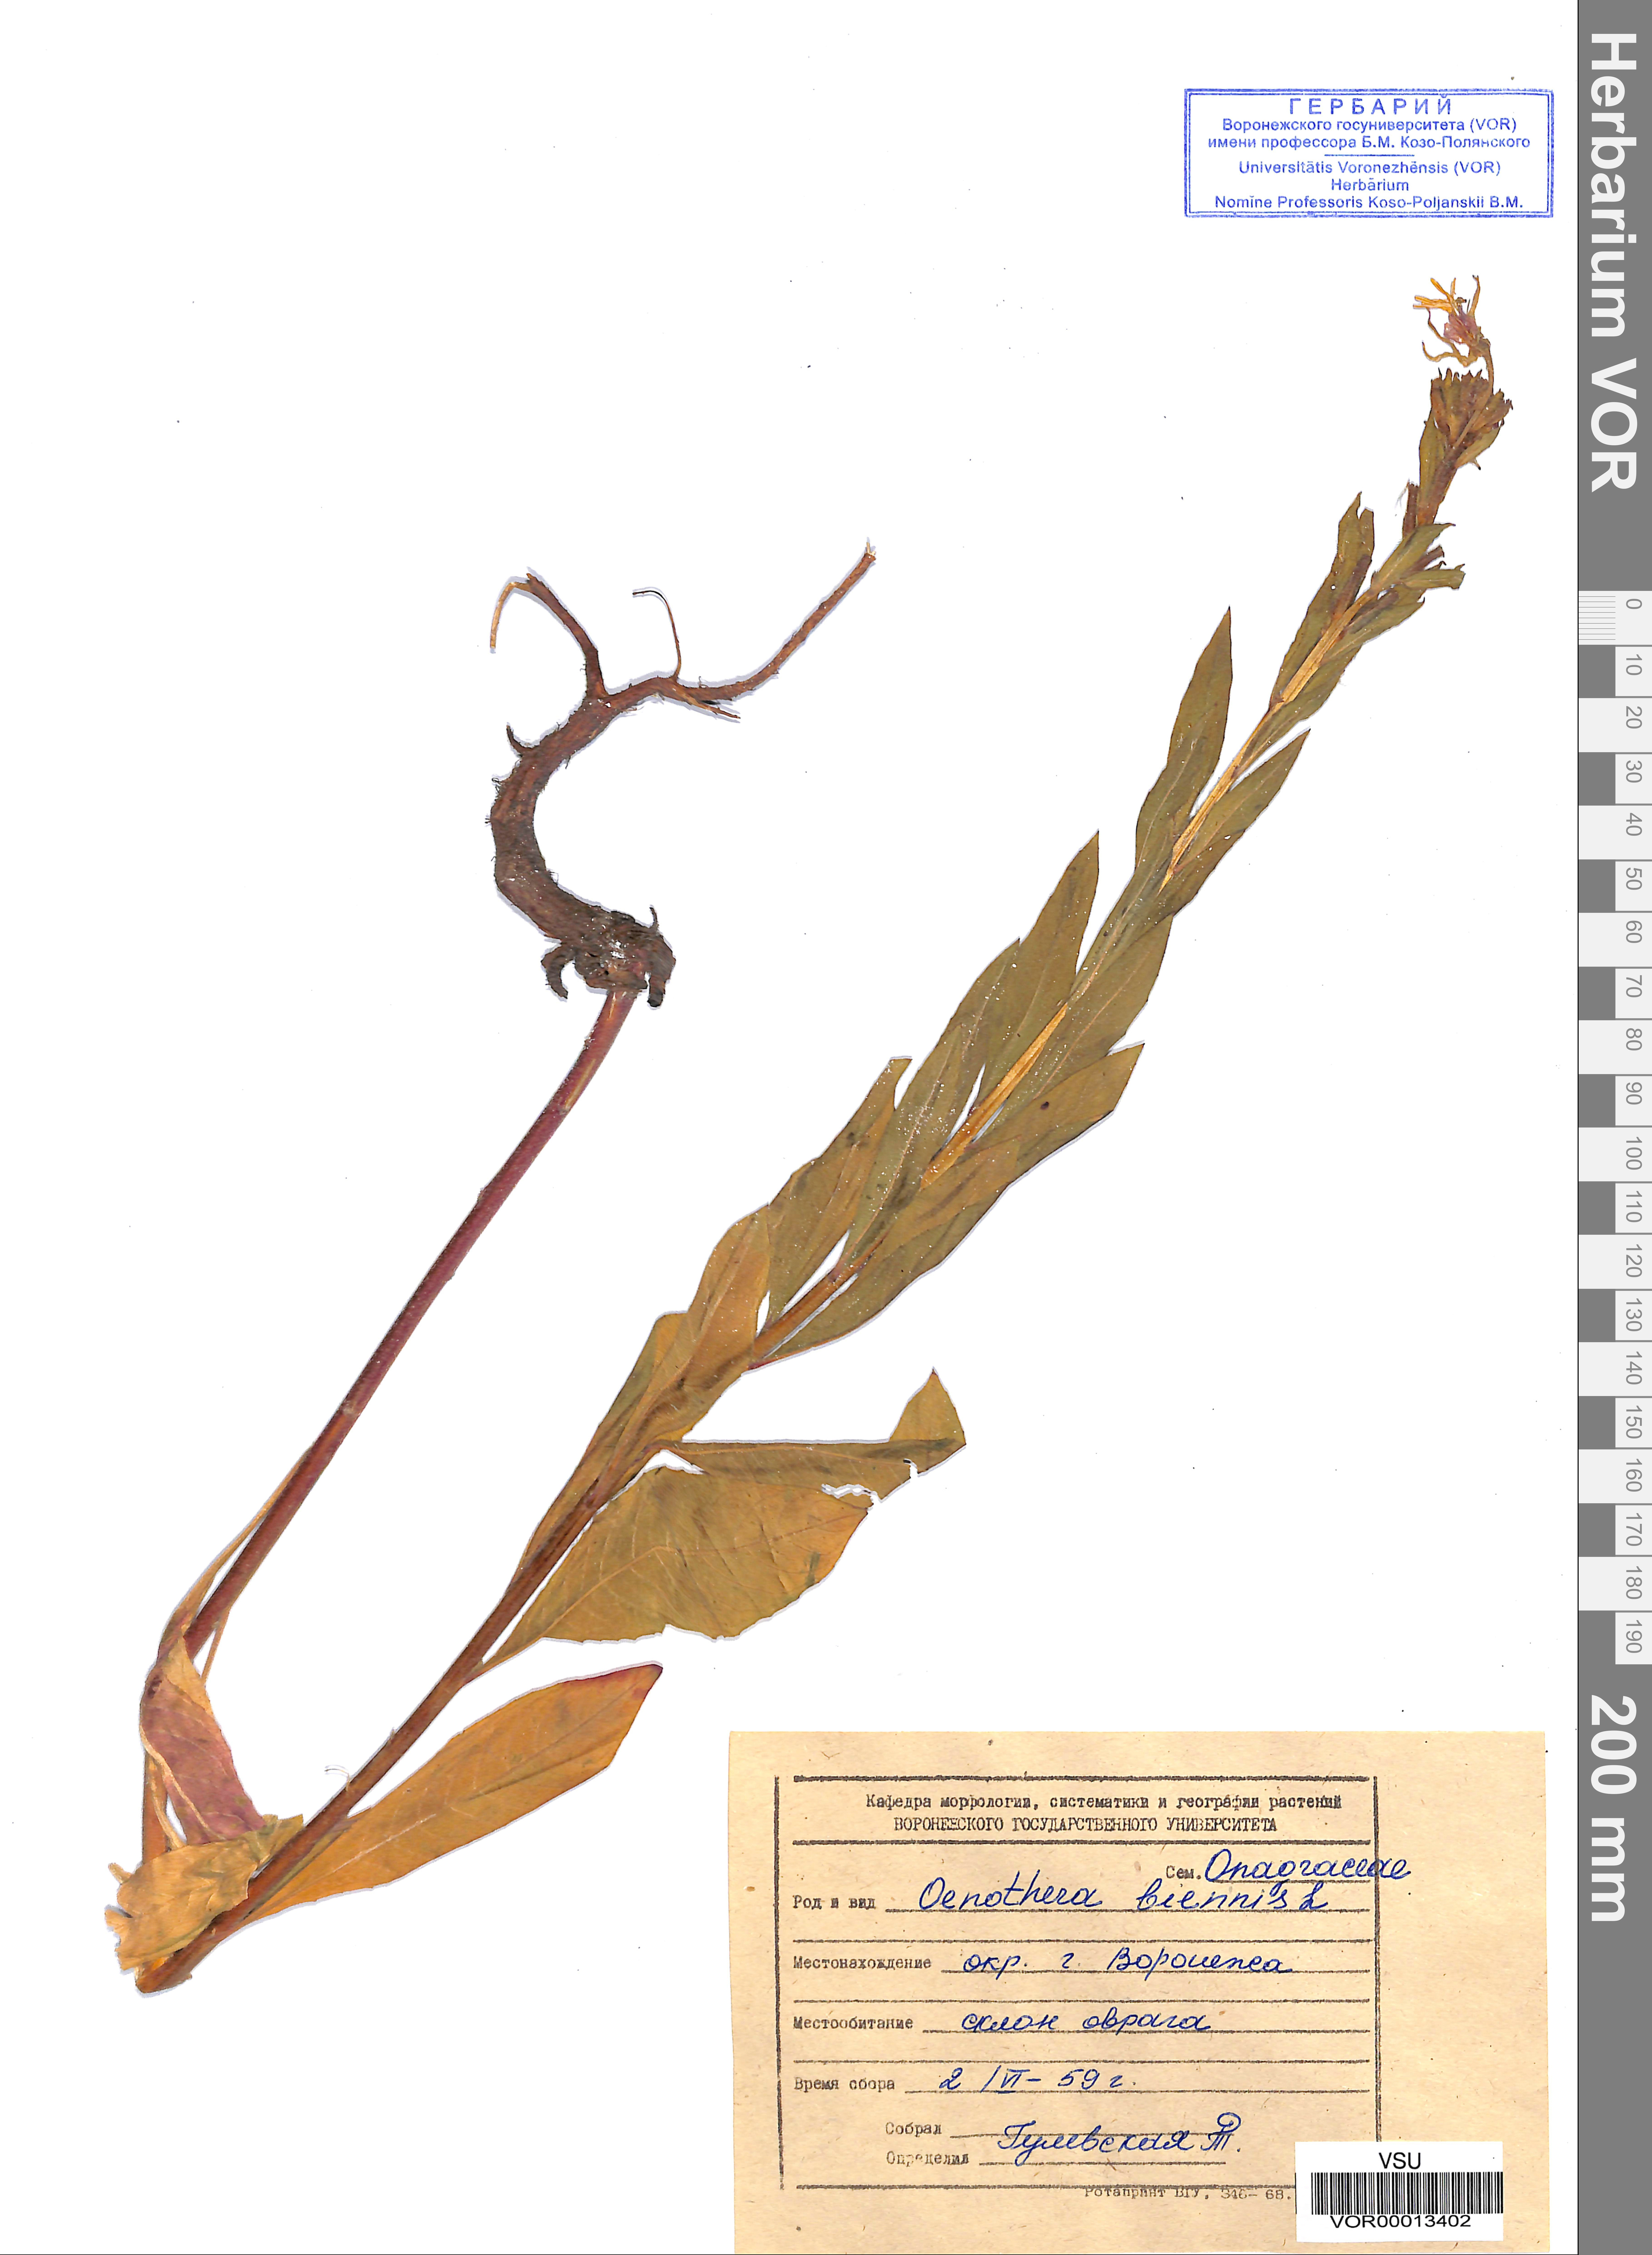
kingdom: Plantae
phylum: Tracheophyta
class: Magnoliopsida
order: Myrtales
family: Onagraceae
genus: Oenothera
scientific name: Oenothera biennis
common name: Common evening-primrose
